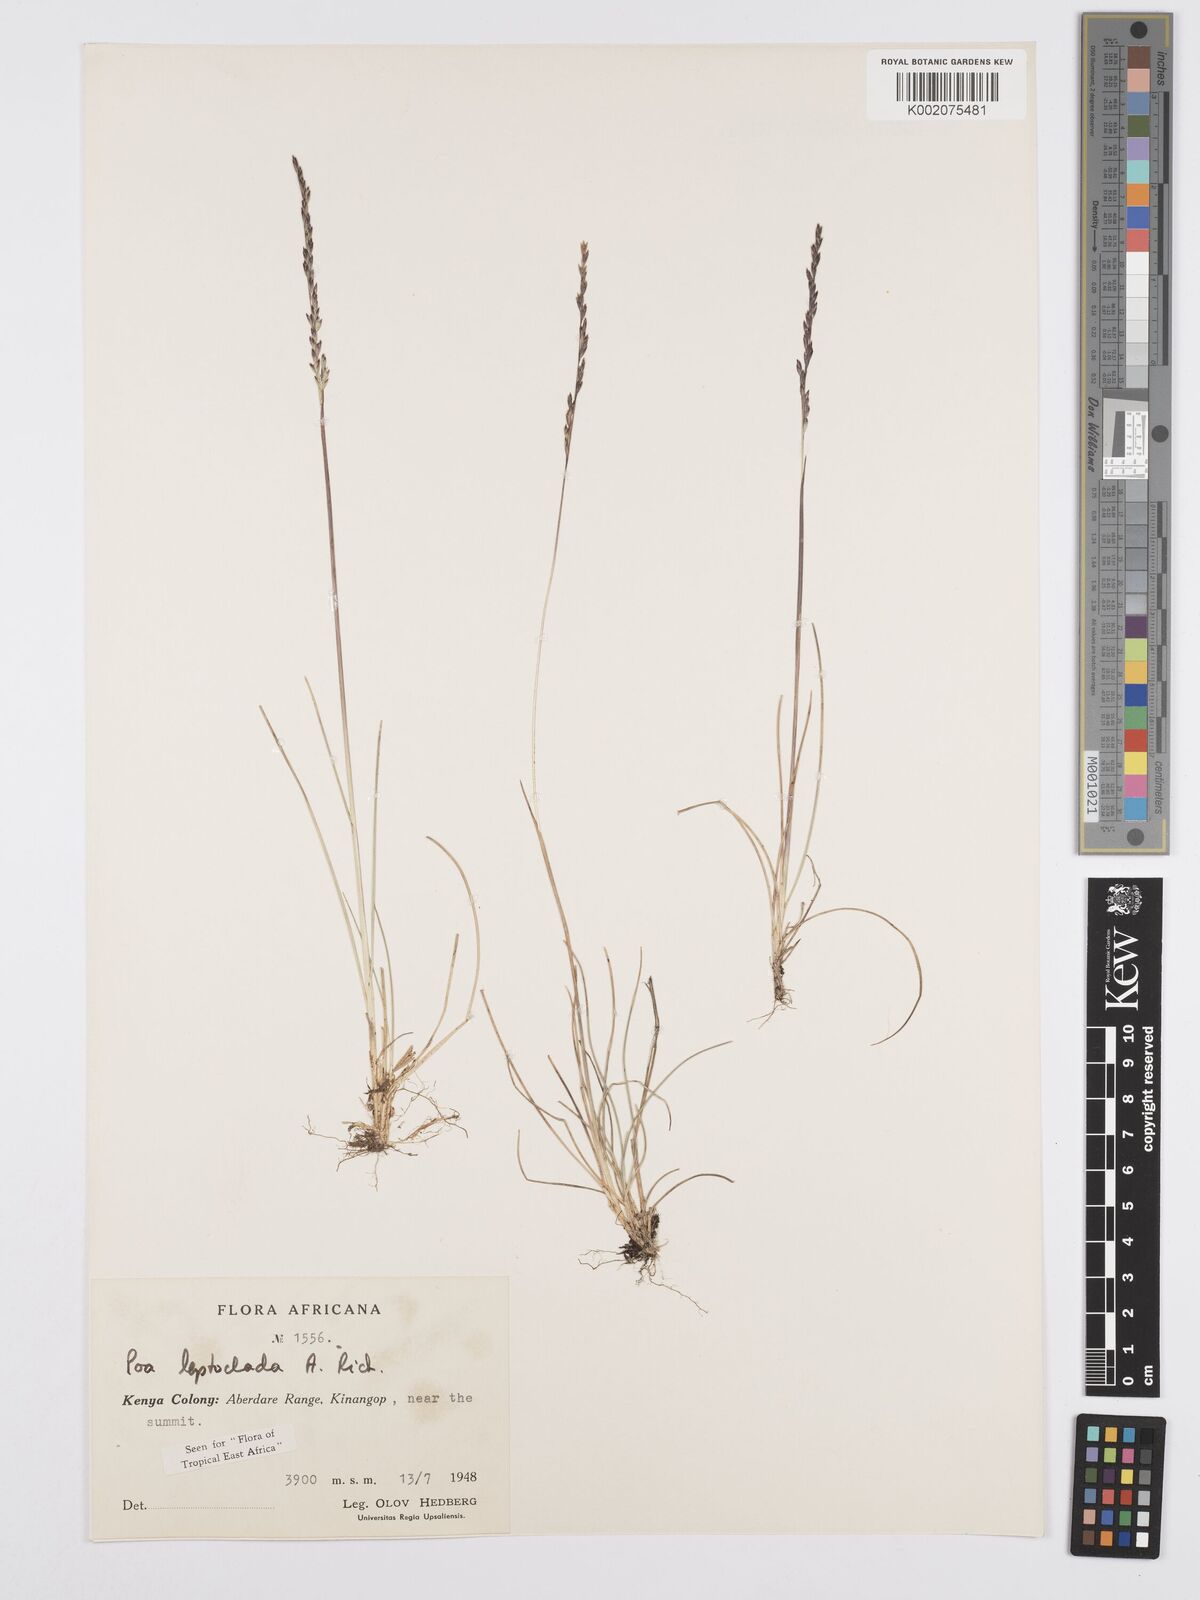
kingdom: Plantae
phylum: Tracheophyta
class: Liliopsida
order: Poales
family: Poaceae
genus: Poa
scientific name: Poa leptoclada
